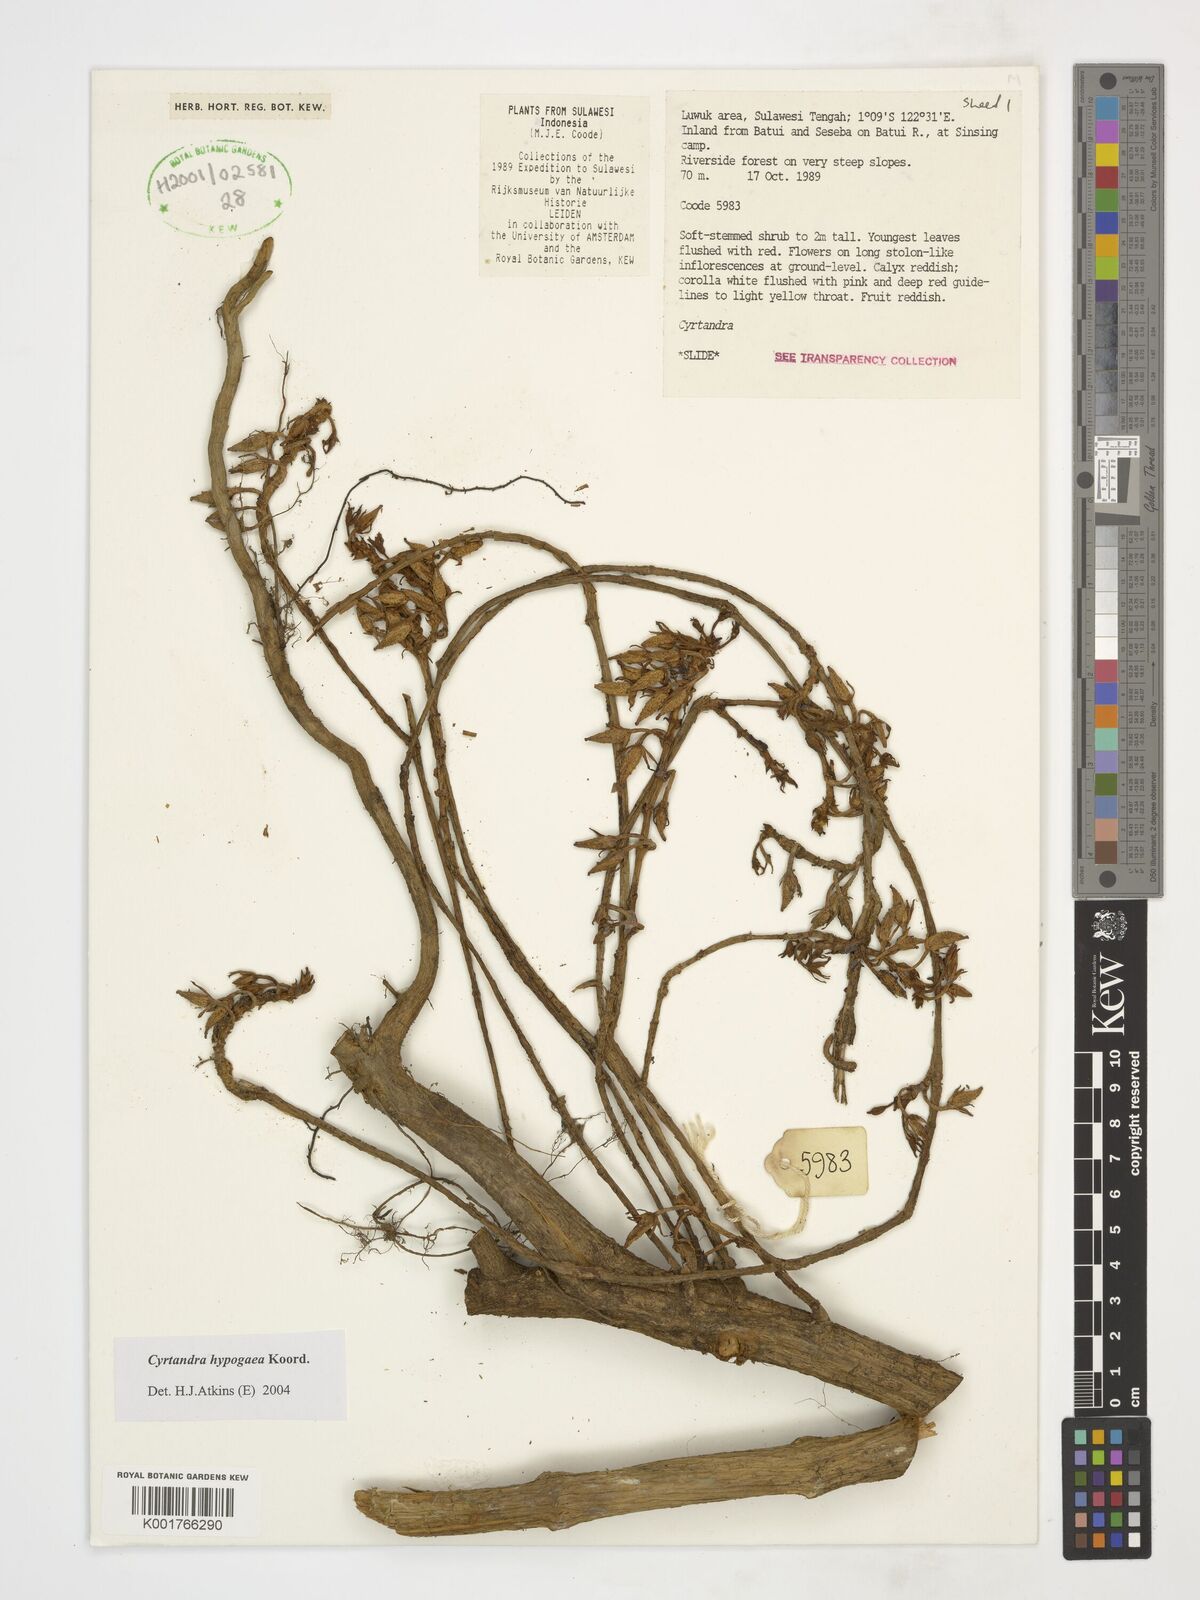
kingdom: Plantae
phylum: Tracheophyta
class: Magnoliopsida
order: Lamiales
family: Gesneriaceae
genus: Cyrtandra
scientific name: Cyrtandra hypogaea
